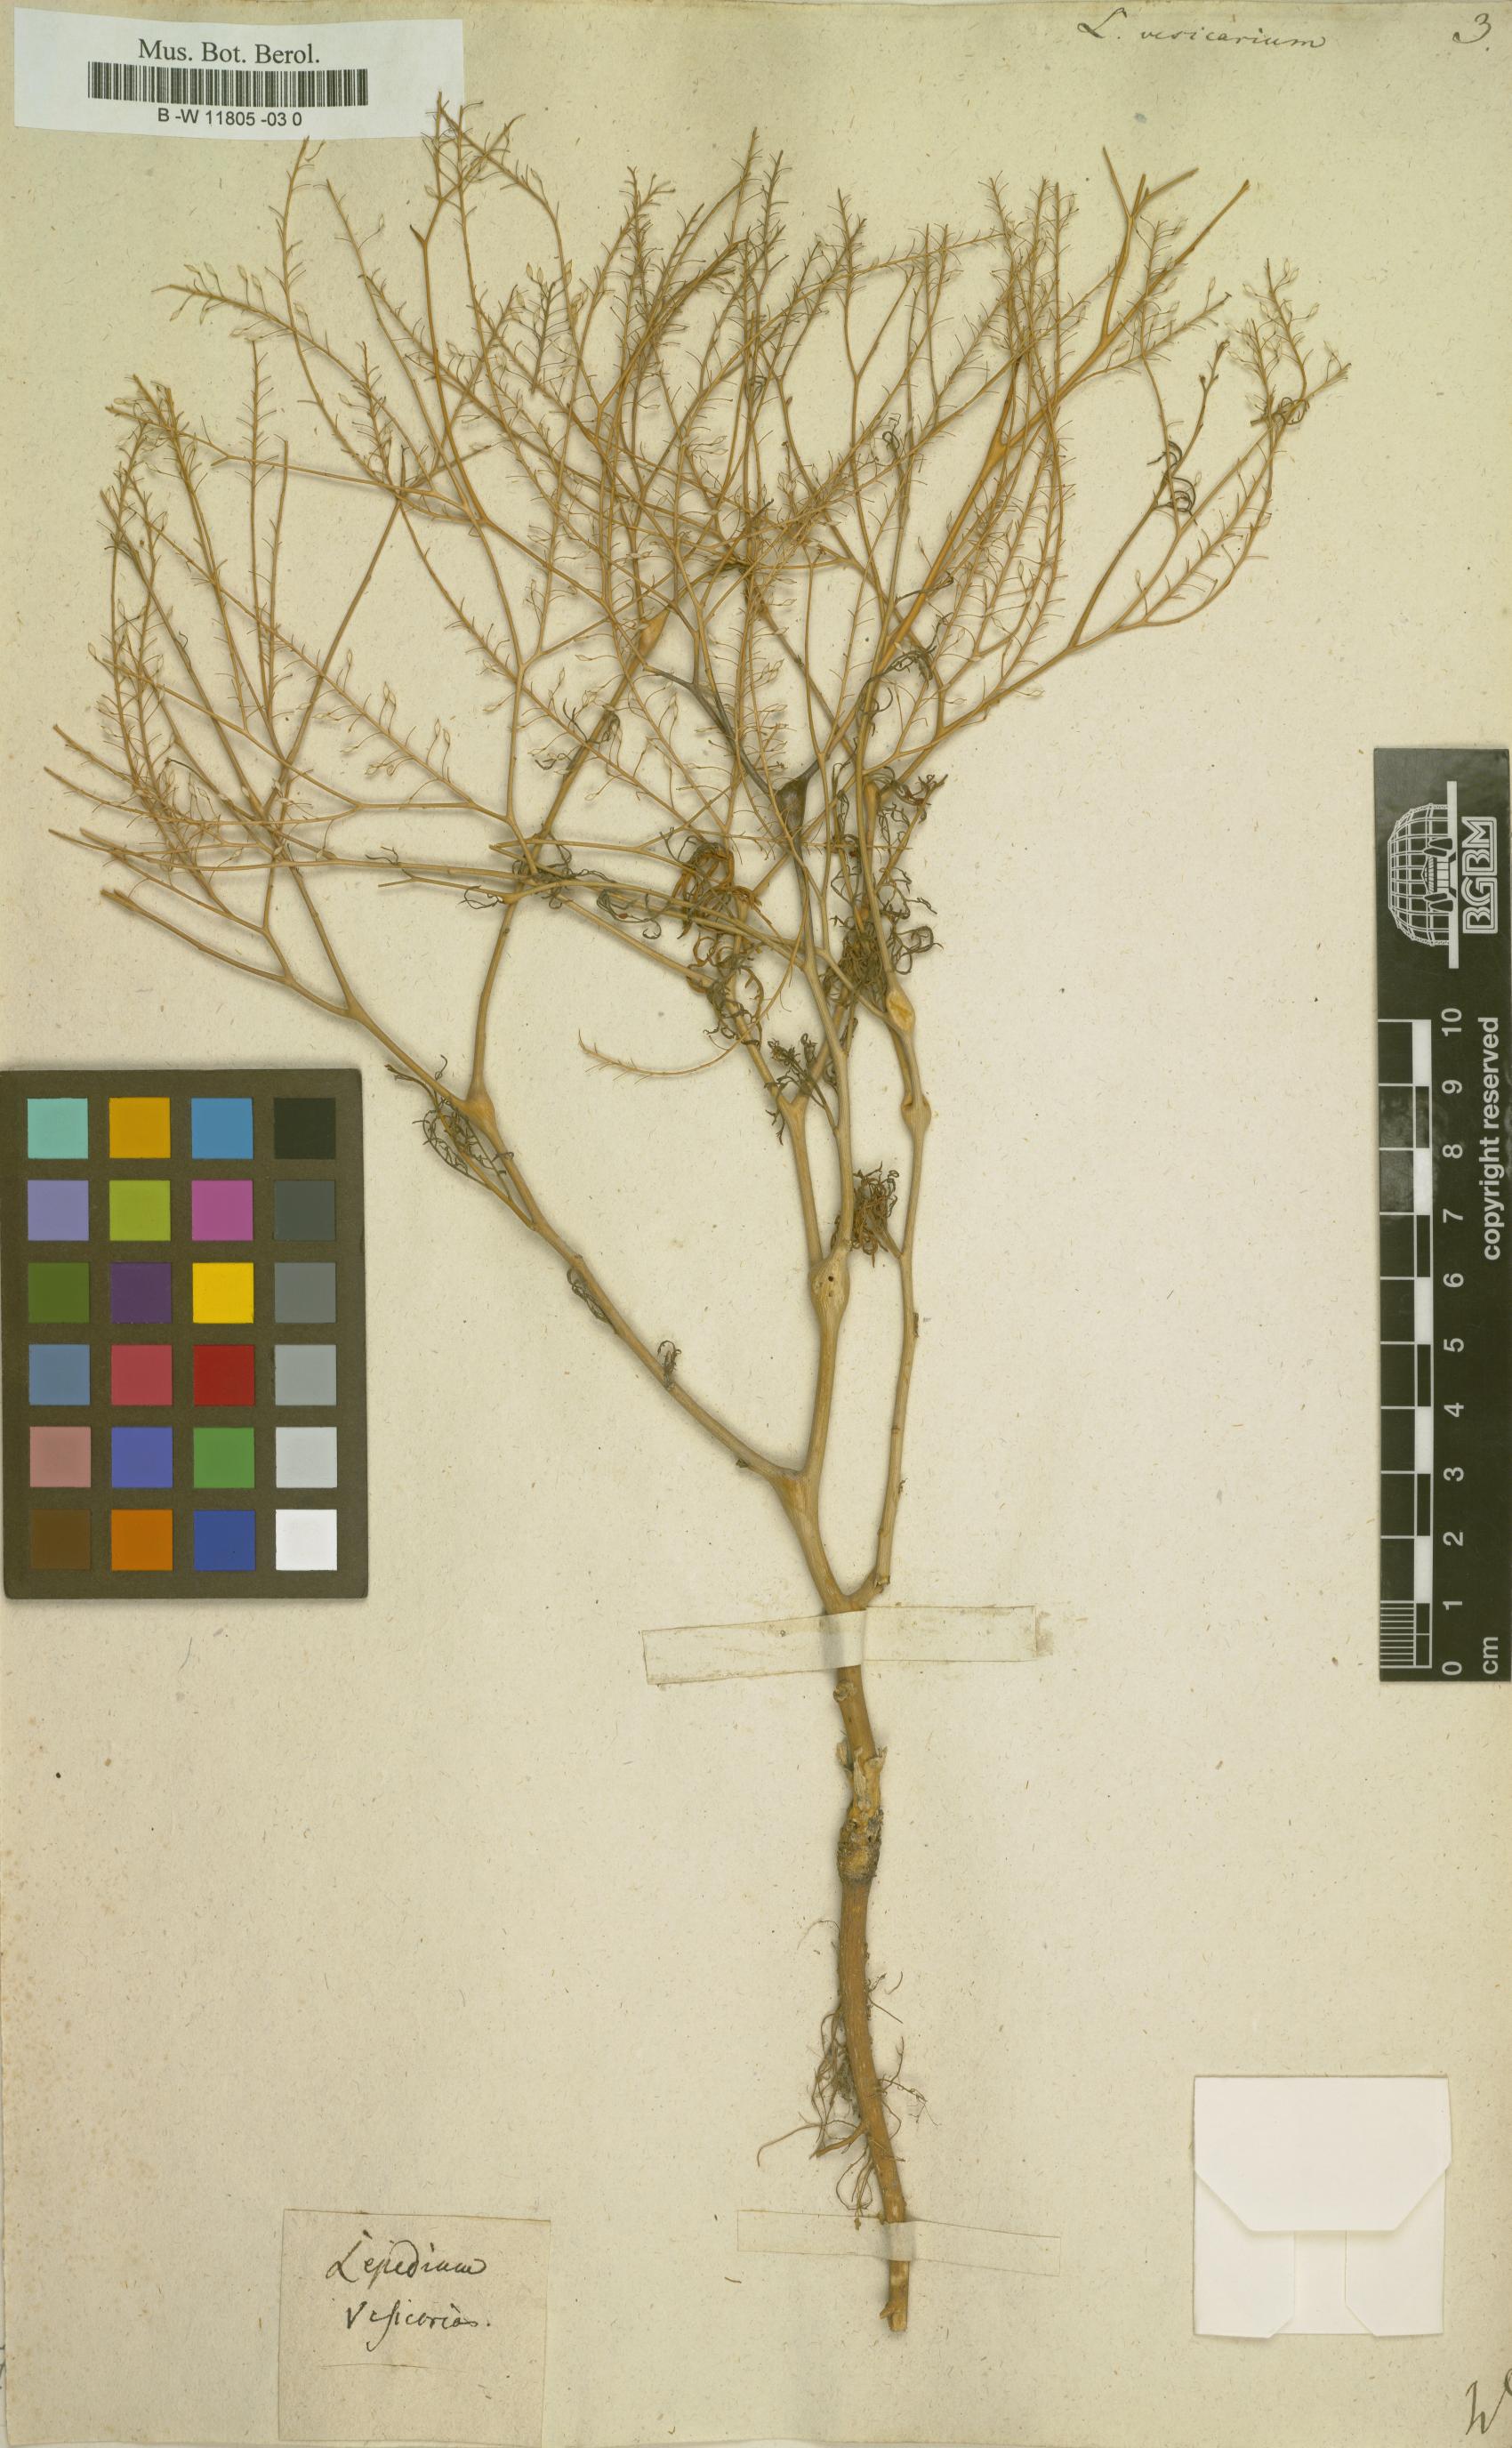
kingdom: Plantae
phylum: Tracheophyta
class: Magnoliopsida
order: Brassicales
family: Brassicaceae
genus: Lepidium
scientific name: Lepidium vesicarium
